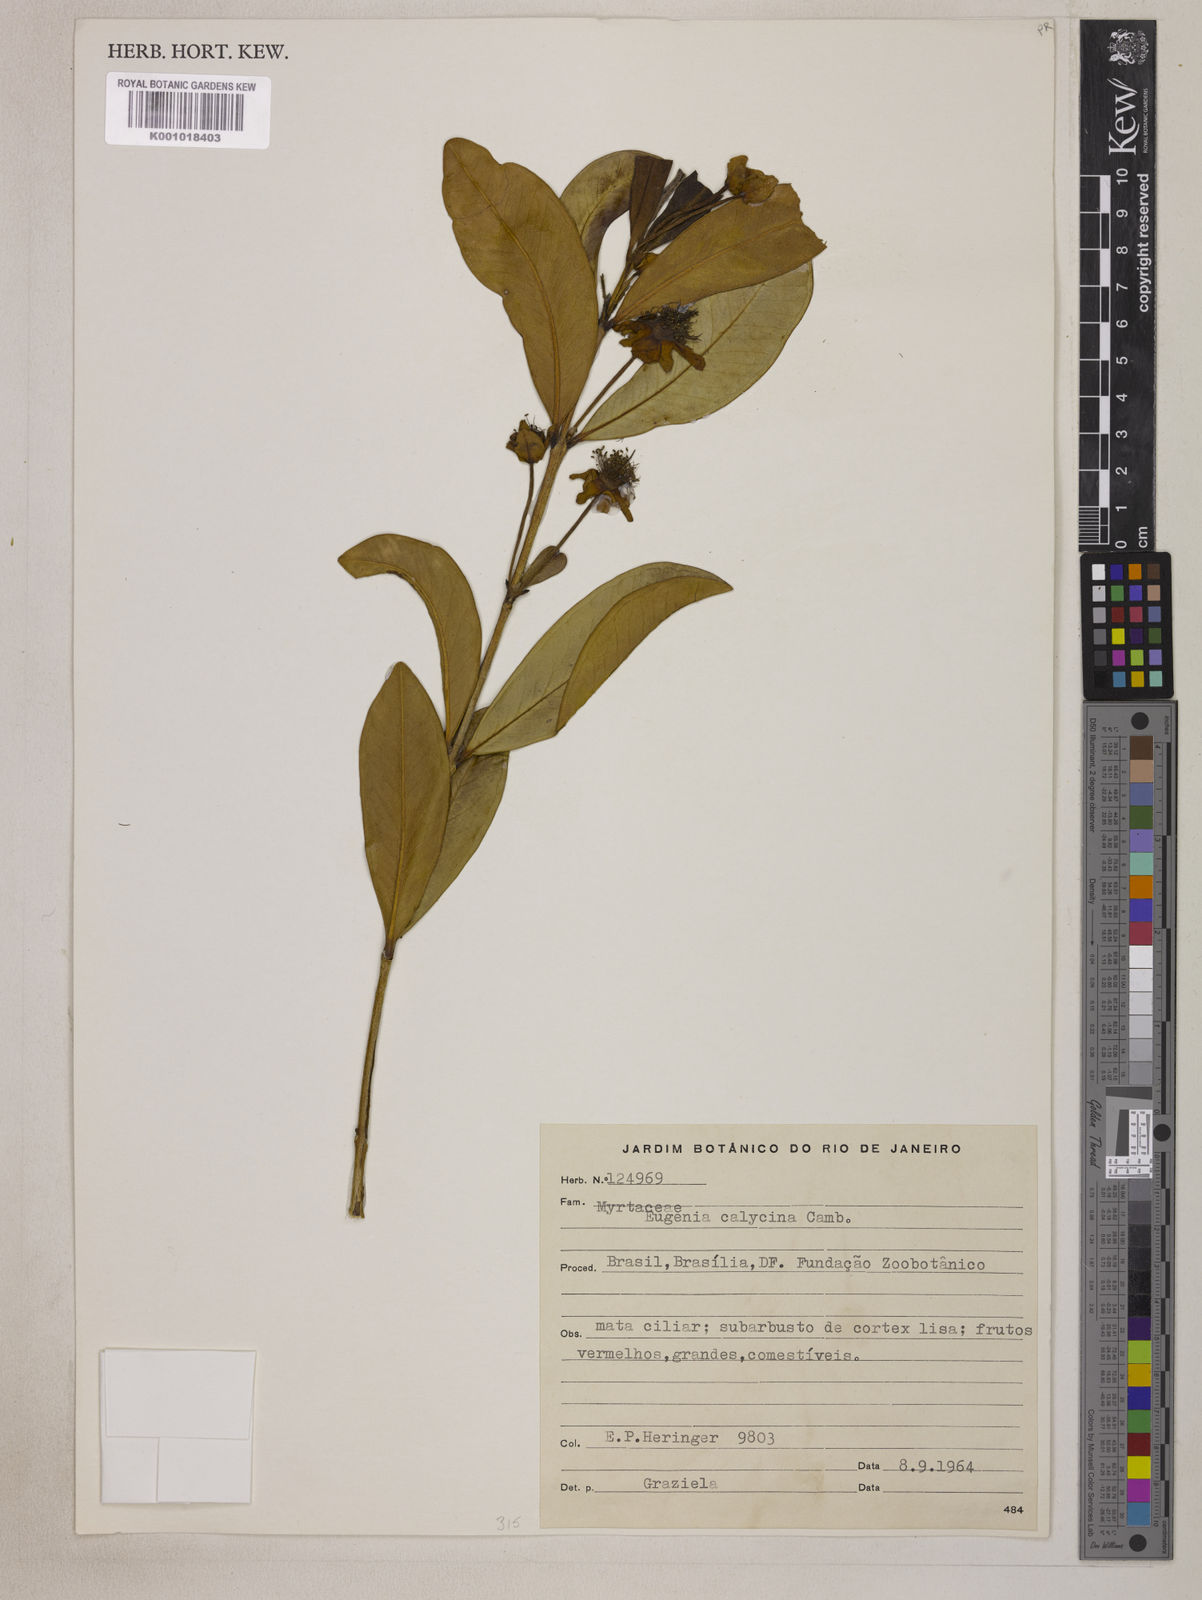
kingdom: Plantae
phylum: Tracheophyta
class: Magnoliopsida
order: Myrtales
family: Myrtaceae
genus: Eugenia
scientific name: Eugenia calycina
